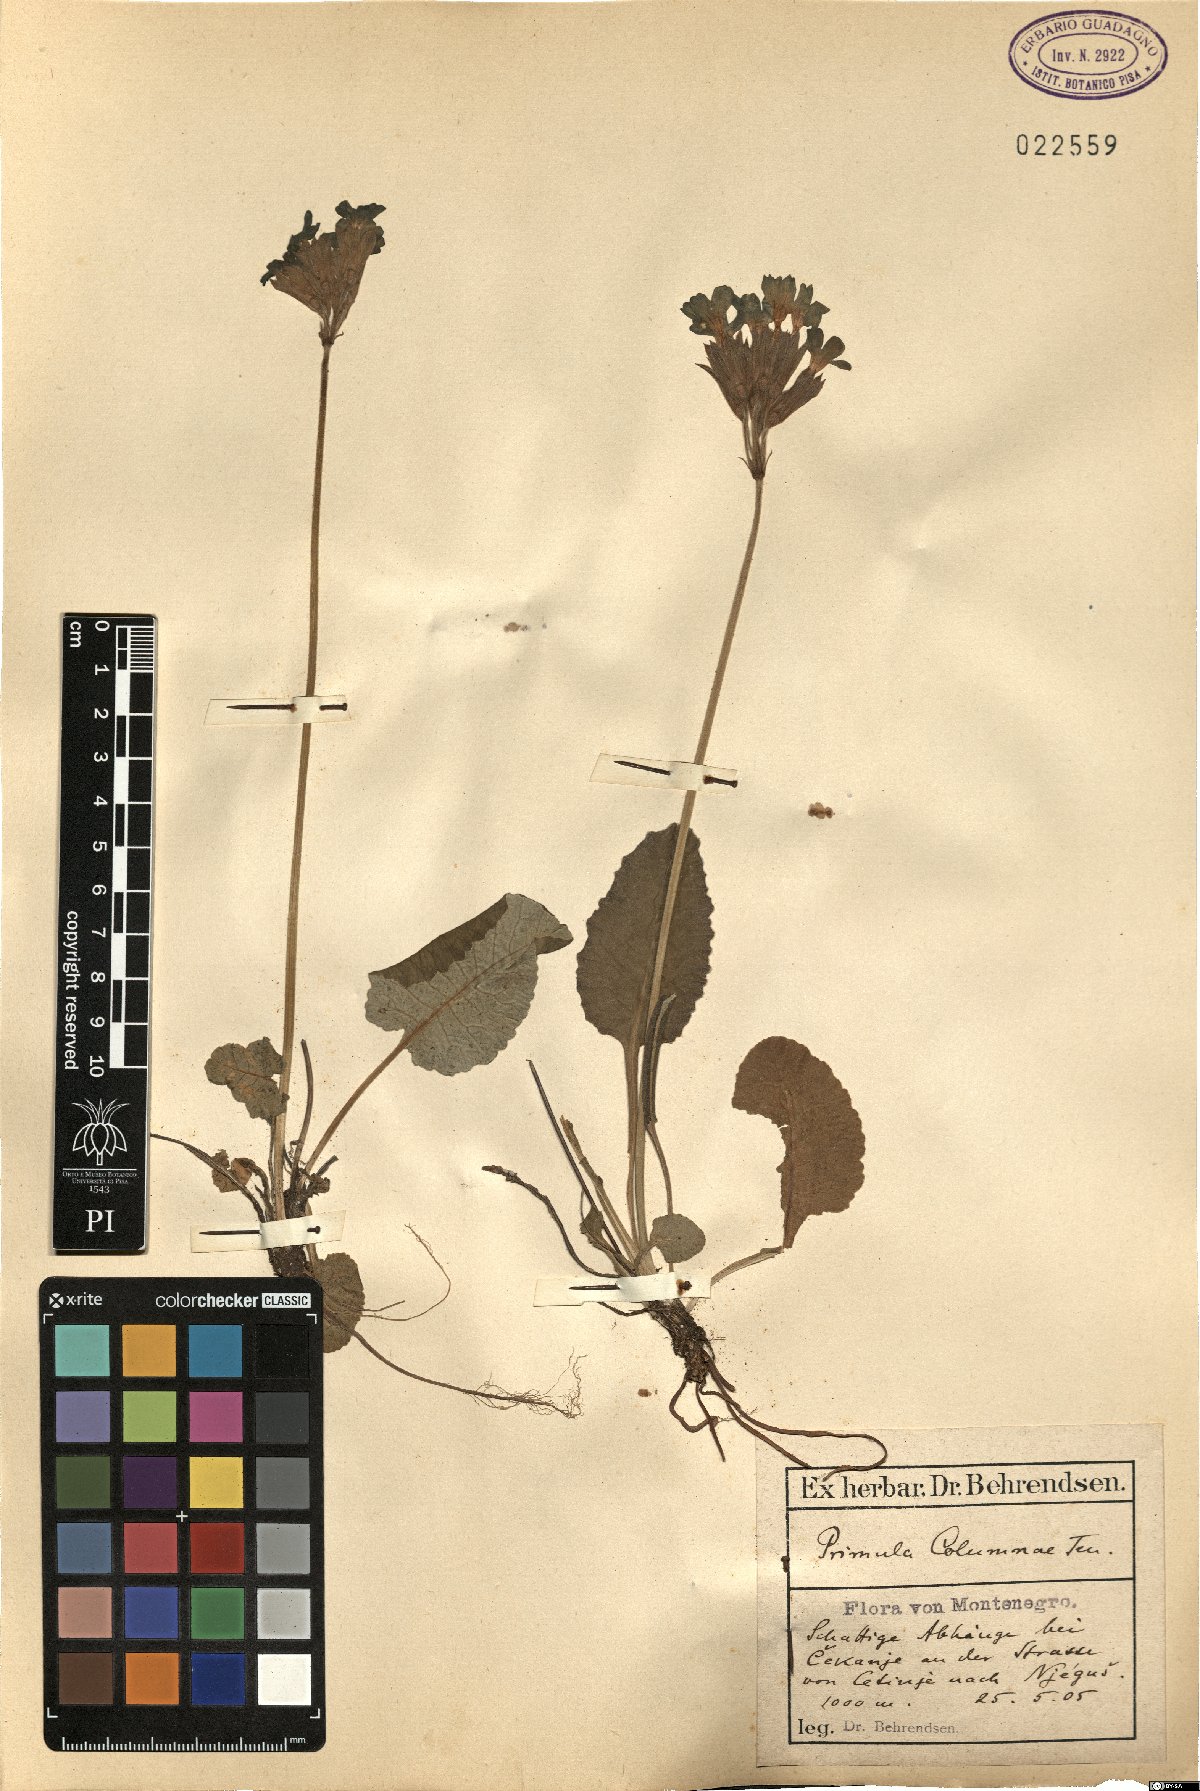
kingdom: Plantae
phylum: Tracheophyta
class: Magnoliopsida
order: Ericales
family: Primulaceae
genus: Primula
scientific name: Primula veris
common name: Cowslip
